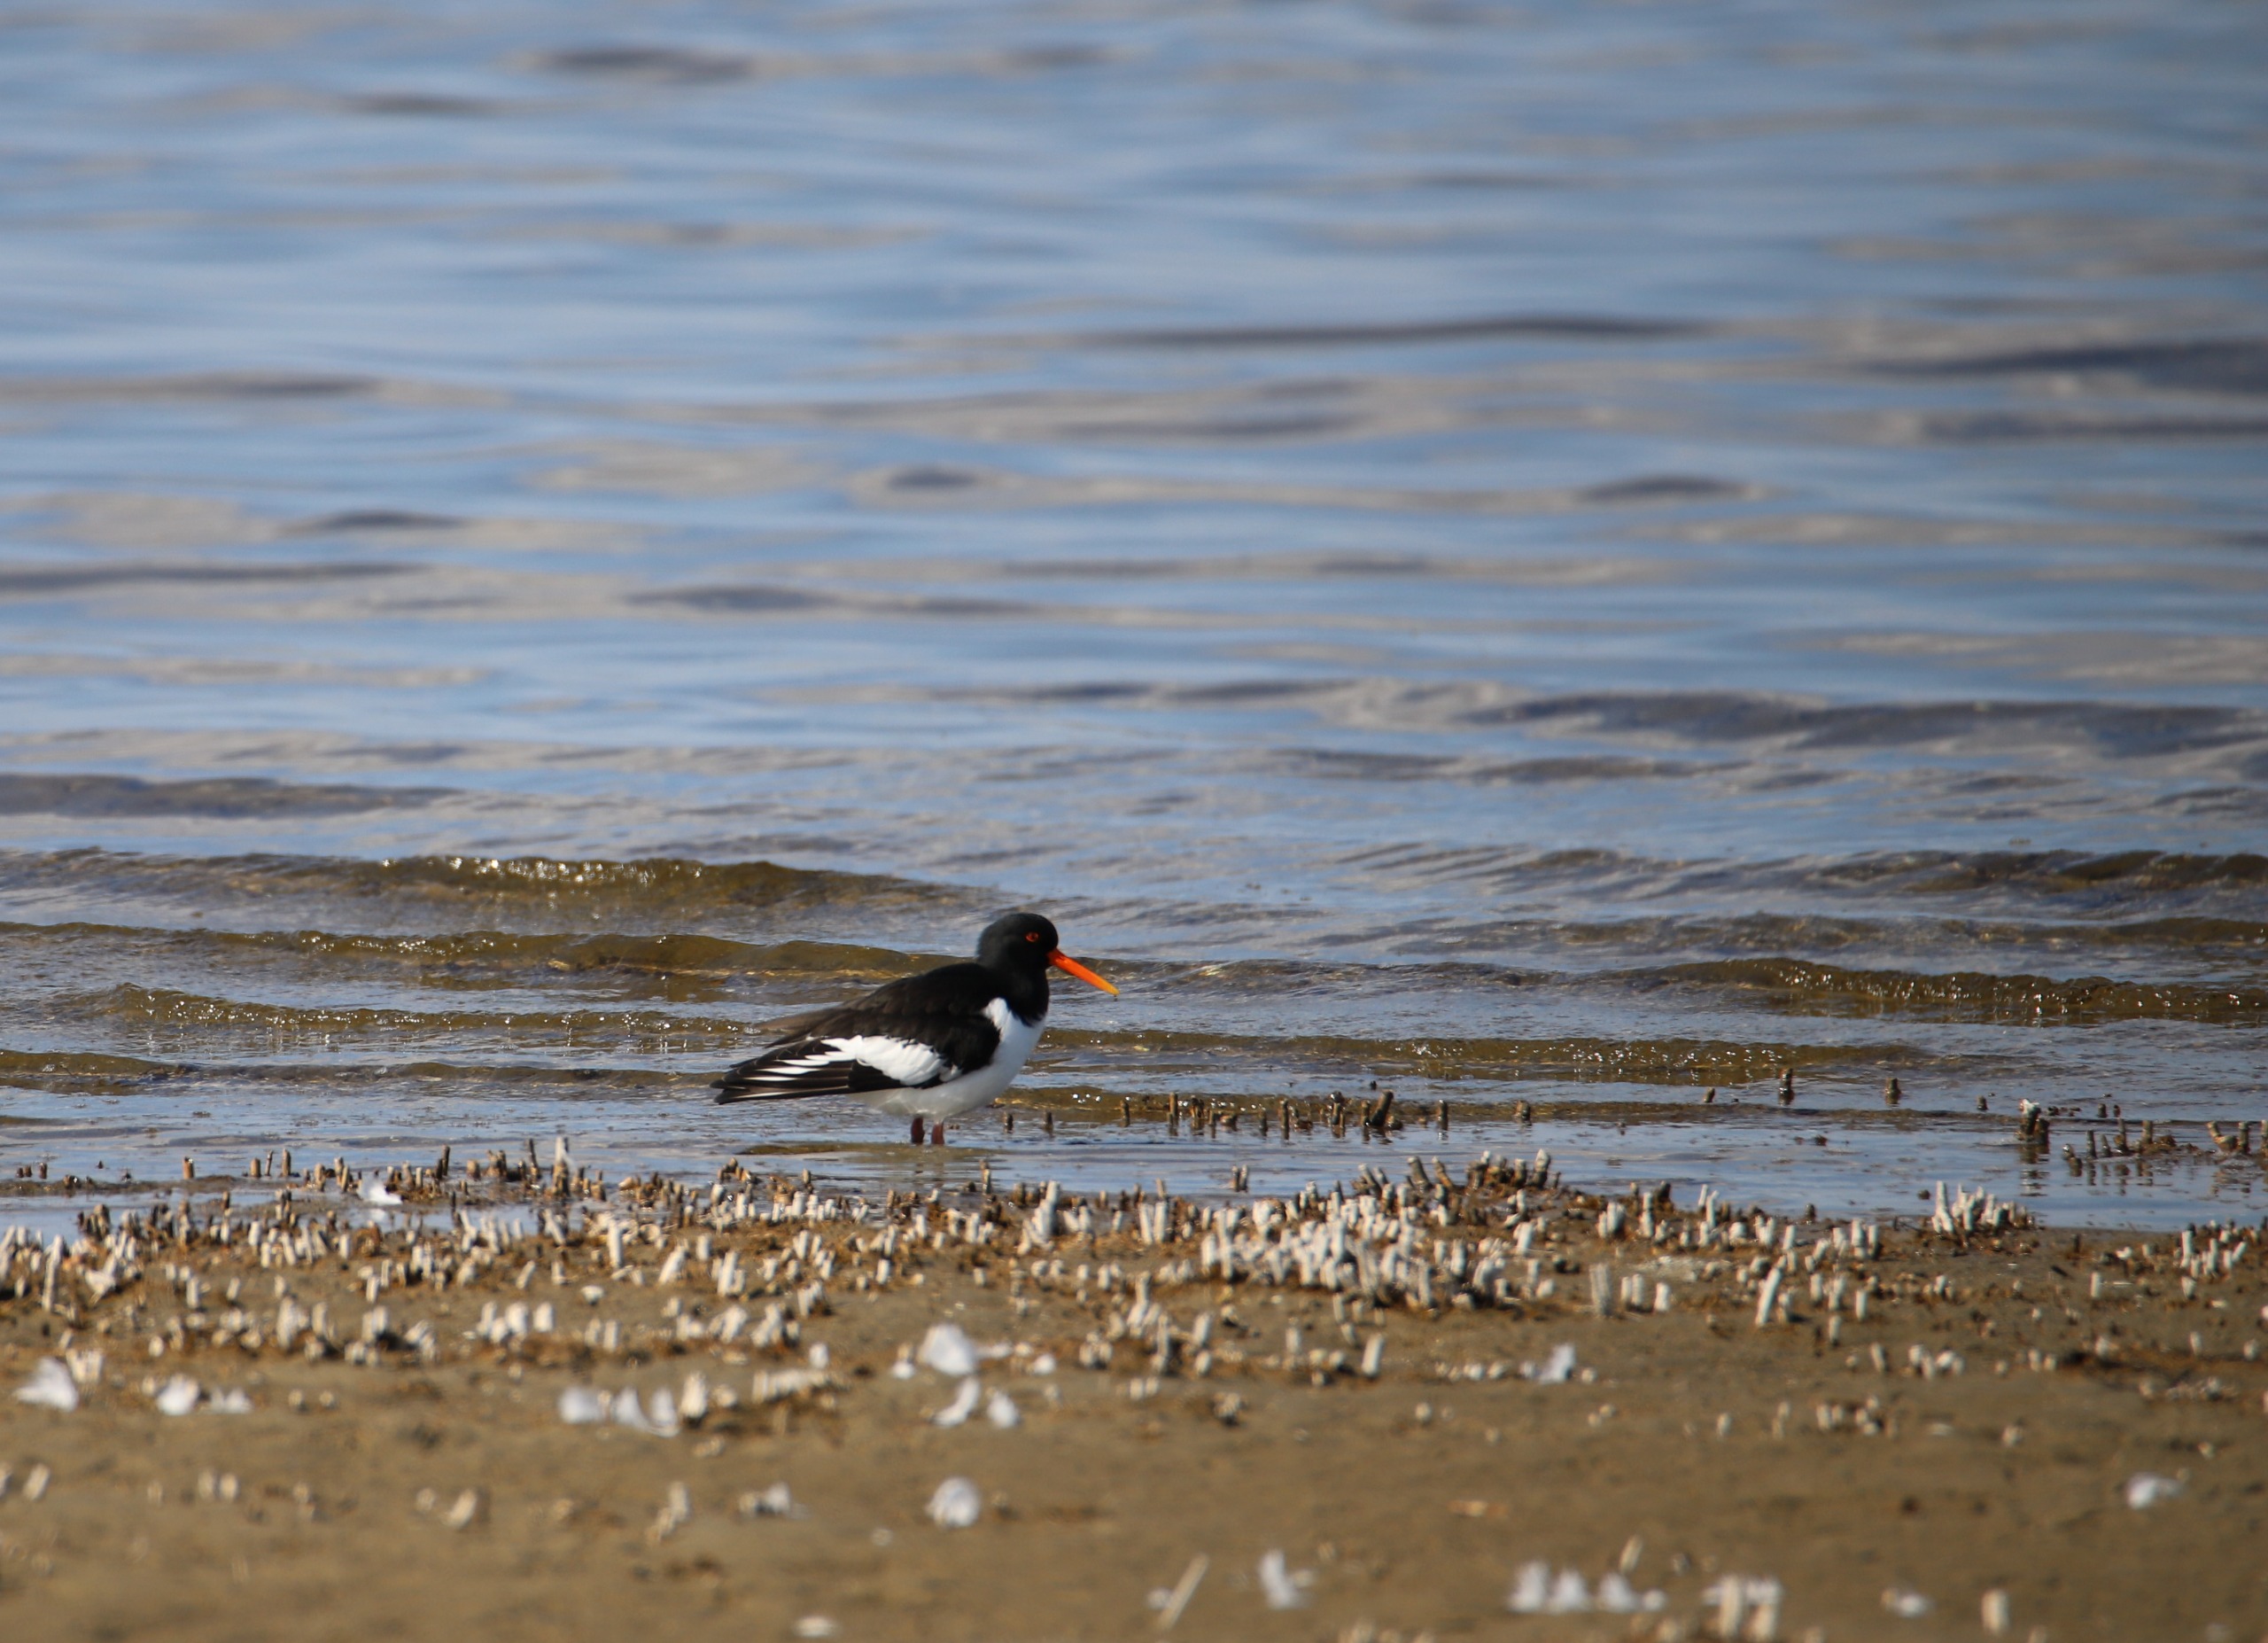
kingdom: Animalia
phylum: Chordata
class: Aves
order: Charadriiformes
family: Haematopodidae
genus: Haematopus
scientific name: Haematopus ostralegus
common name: Strandskade
